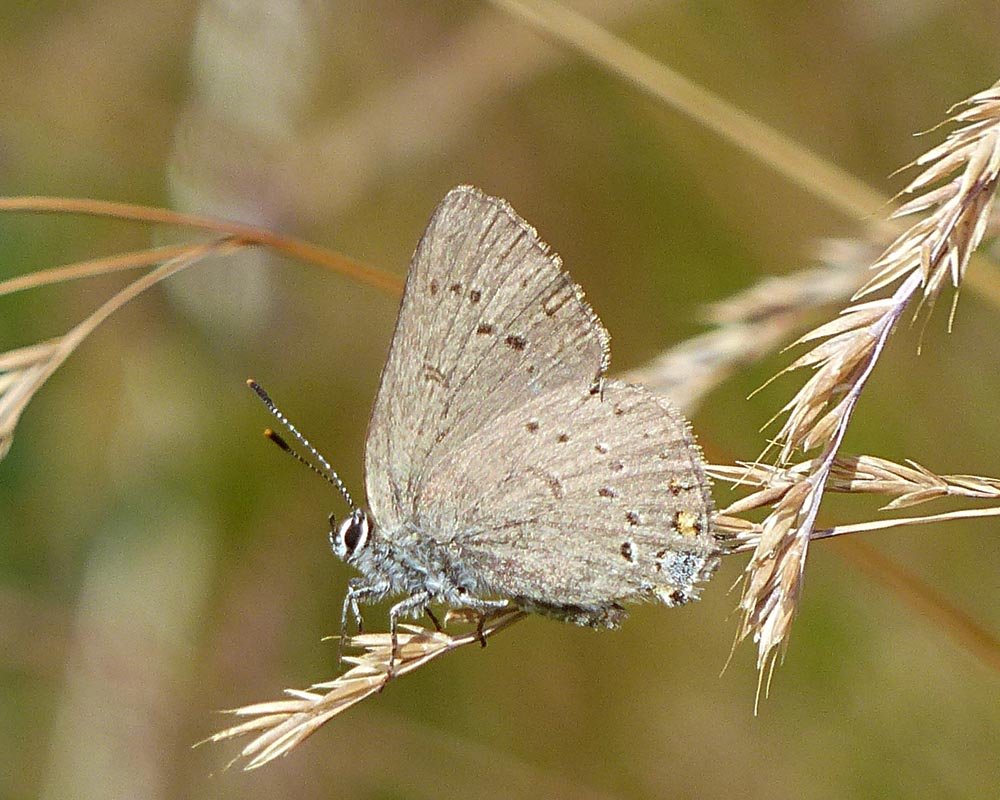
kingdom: Animalia
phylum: Arthropoda
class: Insecta
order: Lepidoptera
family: Lycaenidae
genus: Strymon
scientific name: Strymon sylvinus
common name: Sylvan Hairstreak
